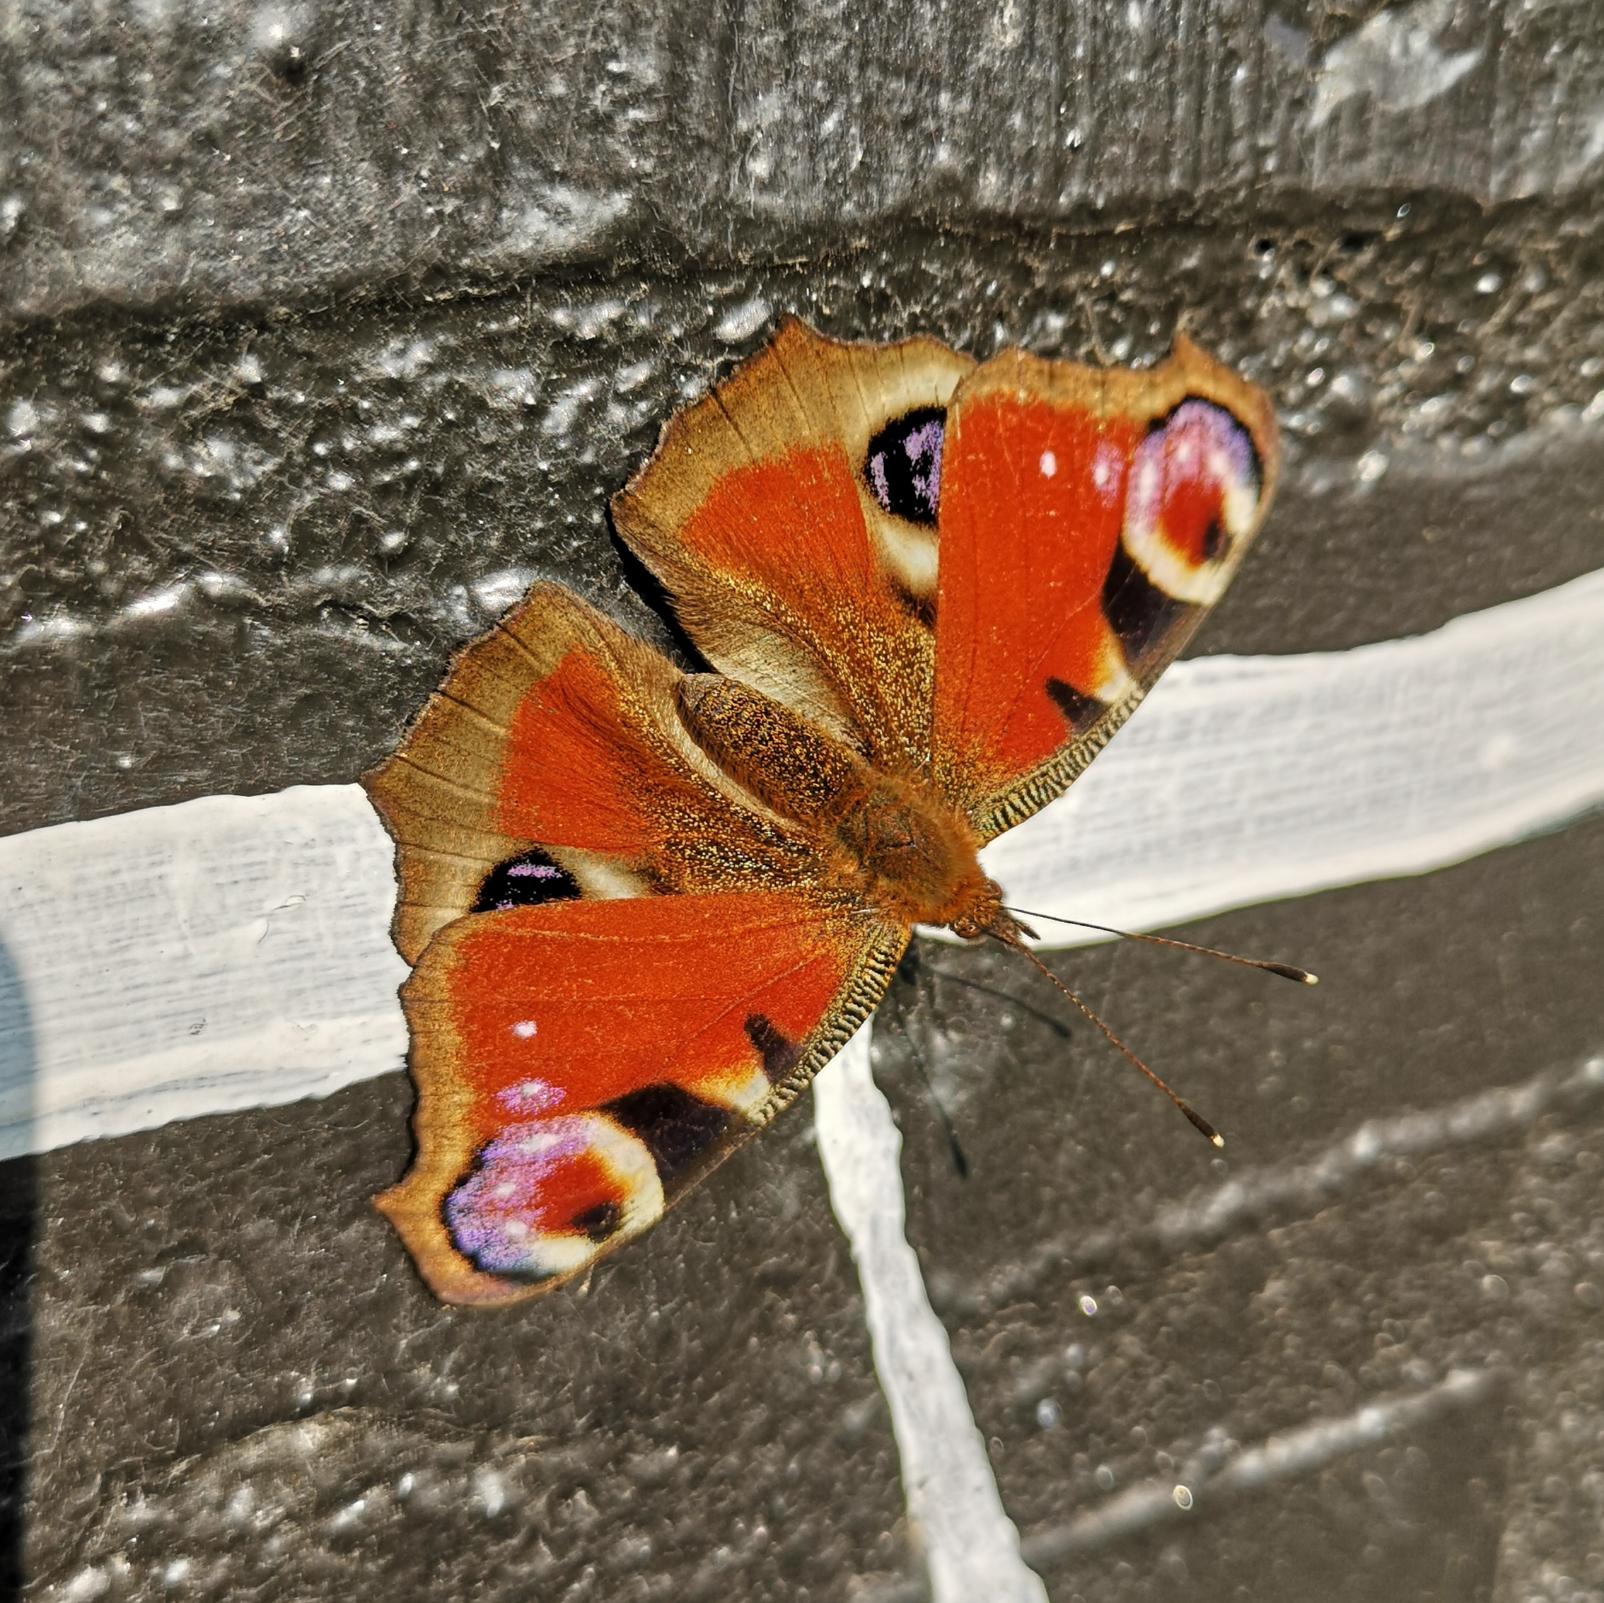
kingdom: Animalia
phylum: Arthropoda
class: Insecta
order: Lepidoptera
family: Nymphalidae
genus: Aglais
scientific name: Aglais io
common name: Dagpåfugleøje
